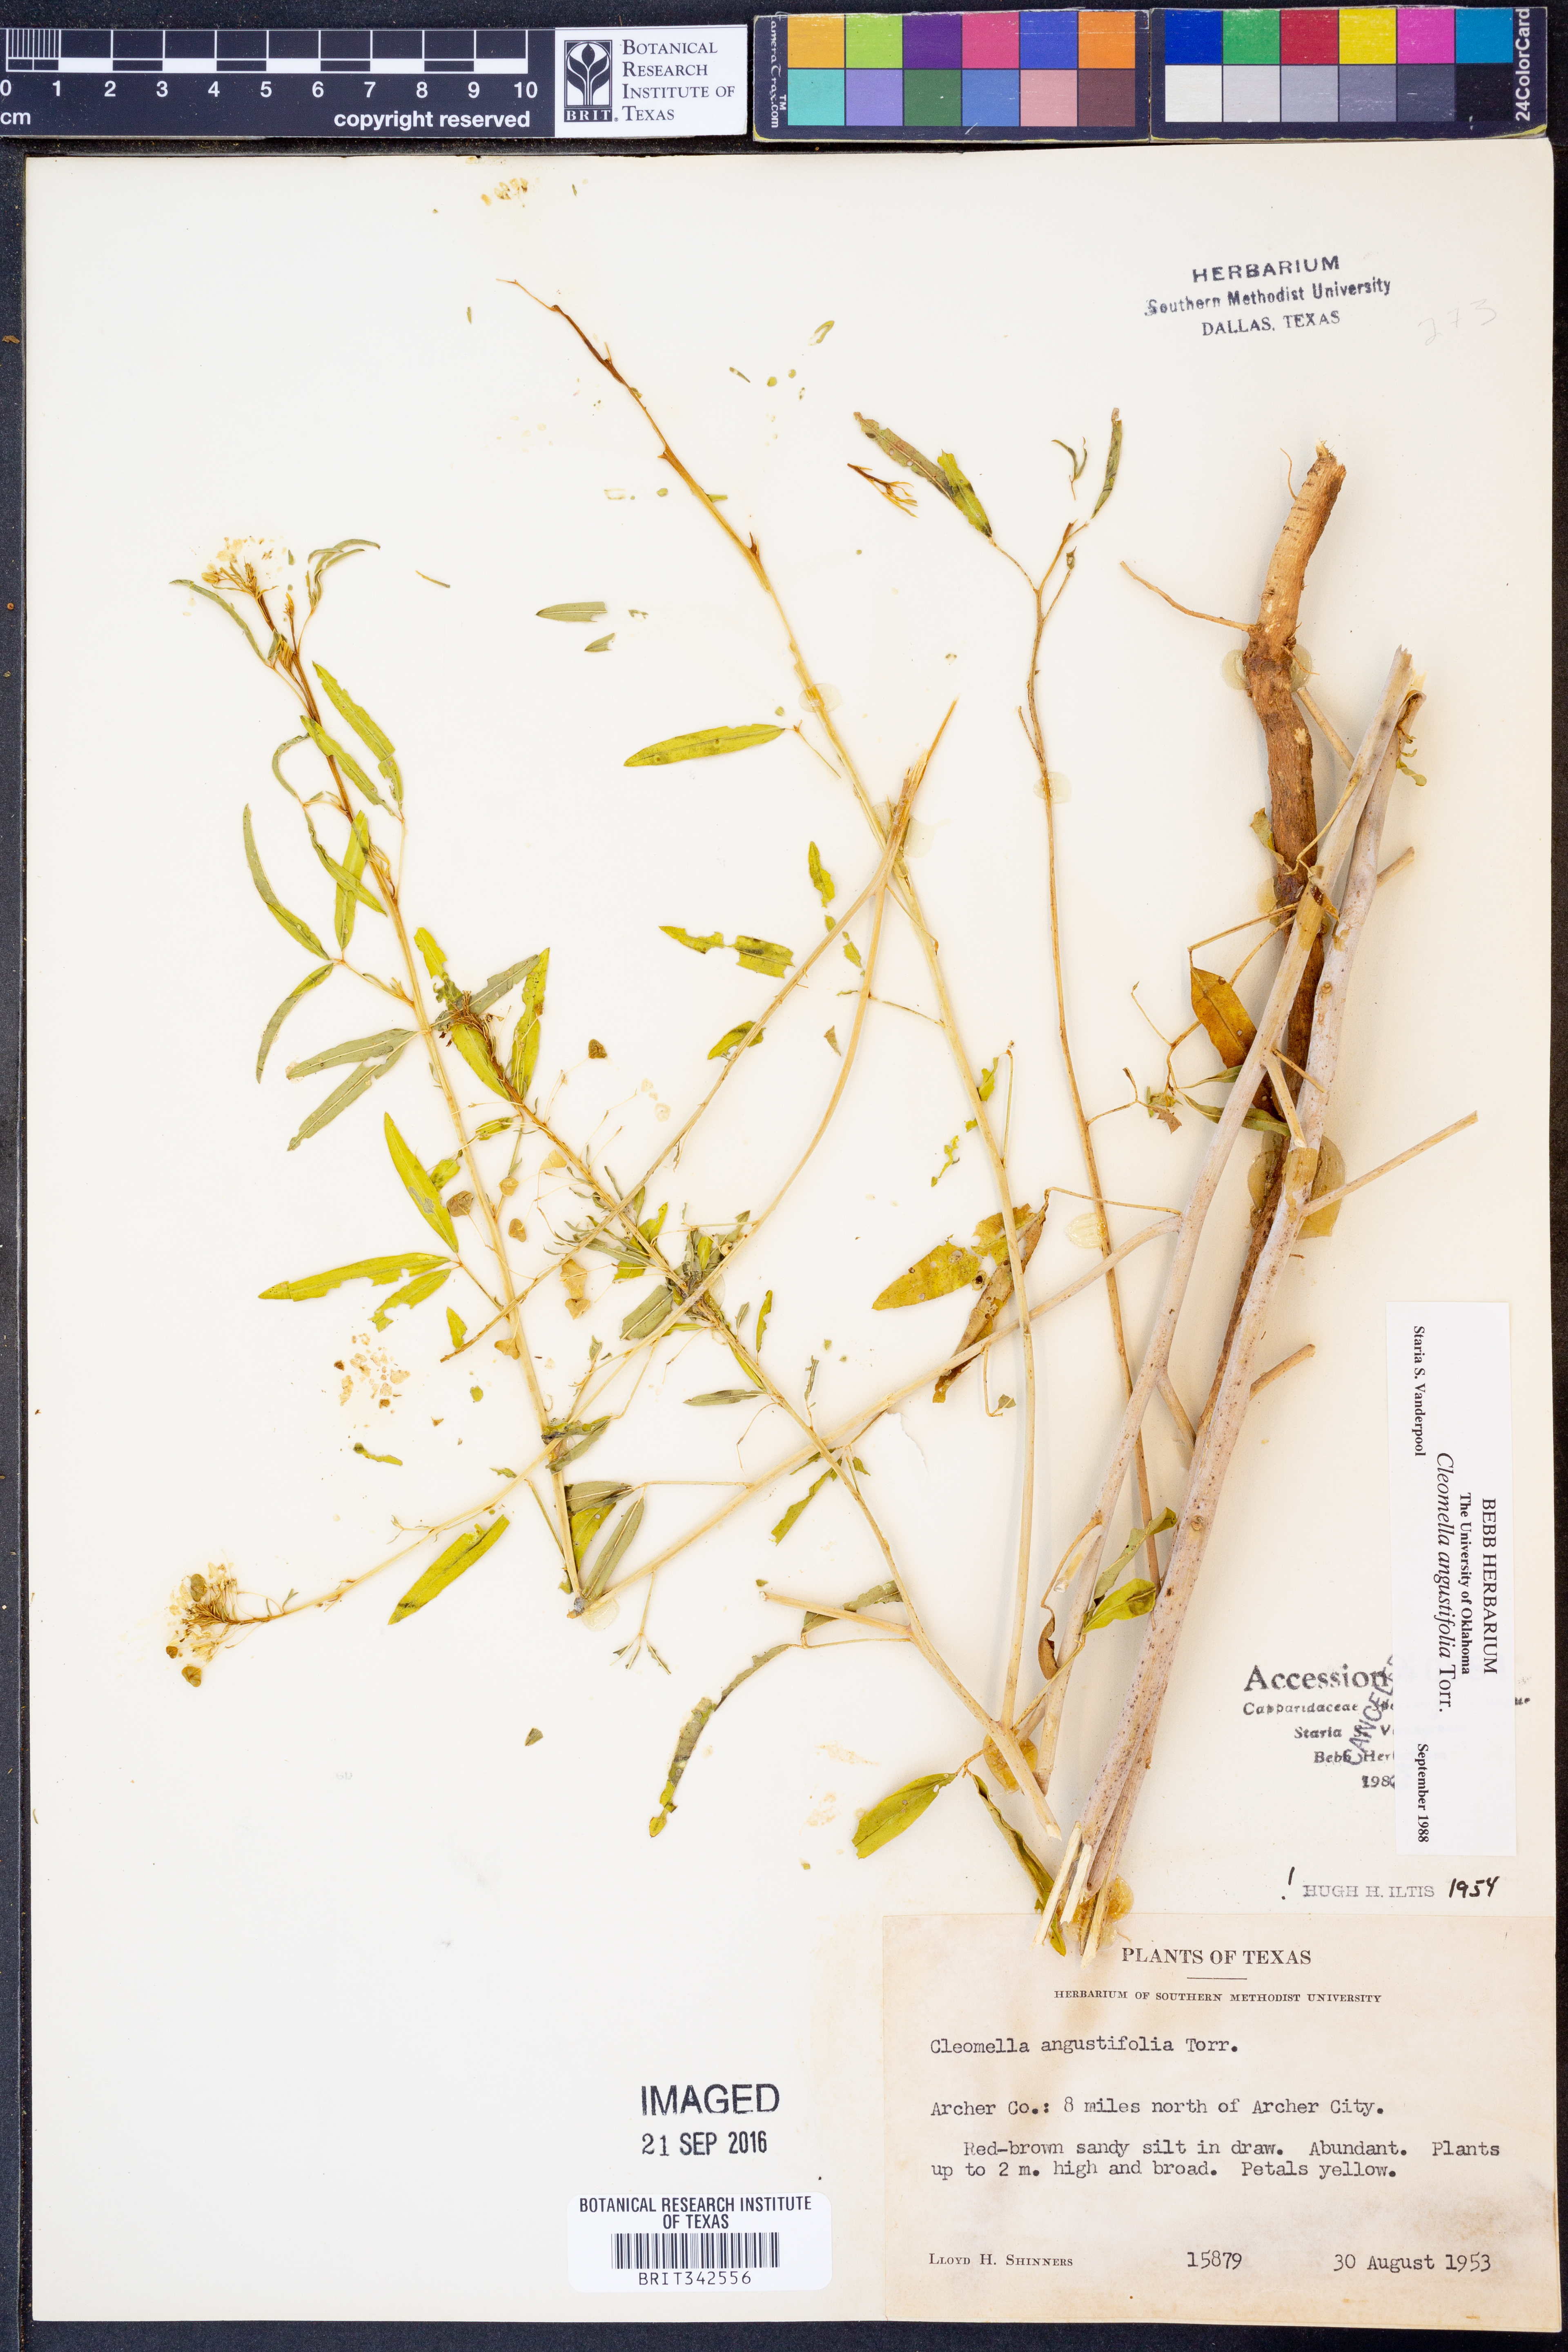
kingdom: Plantae
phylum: Tracheophyta
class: Magnoliopsida
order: Brassicales
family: Cleomaceae
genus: Cleomella
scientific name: Cleomella angustifolia
